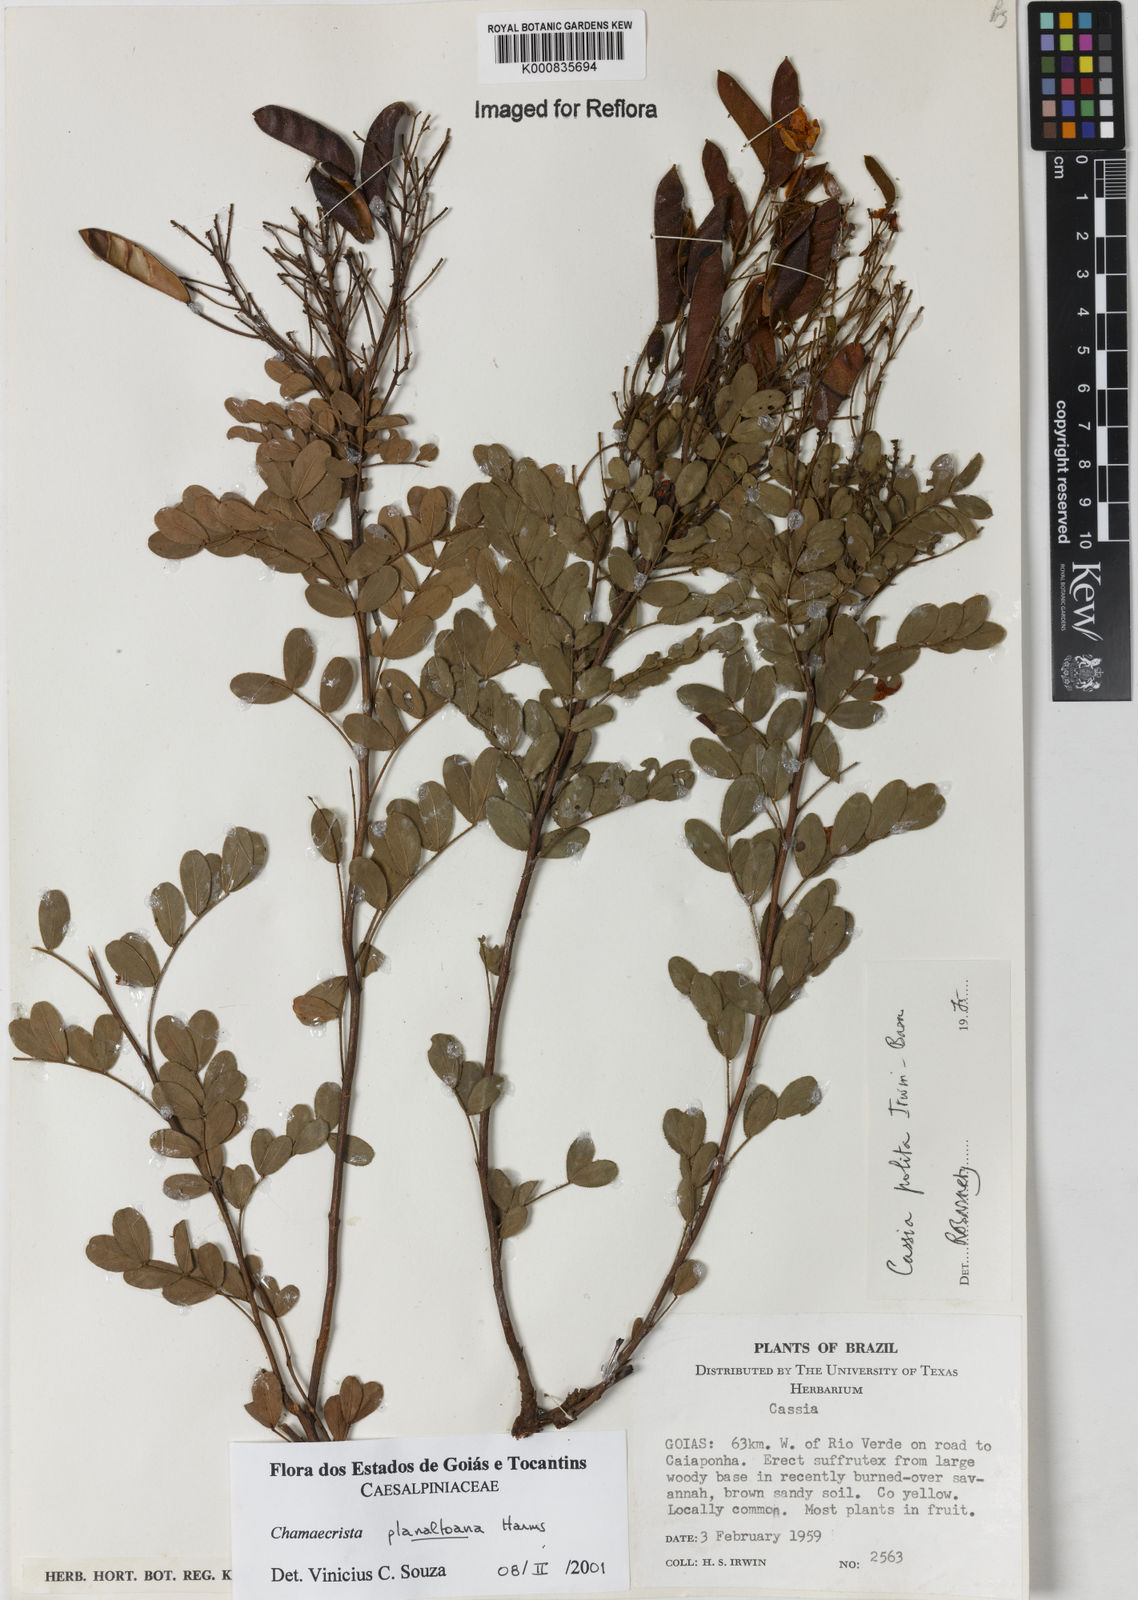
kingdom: Plantae
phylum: Tracheophyta
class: Magnoliopsida
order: Fabales
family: Fabaceae
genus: Chamaecrista
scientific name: Chamaecrista planaltoana
